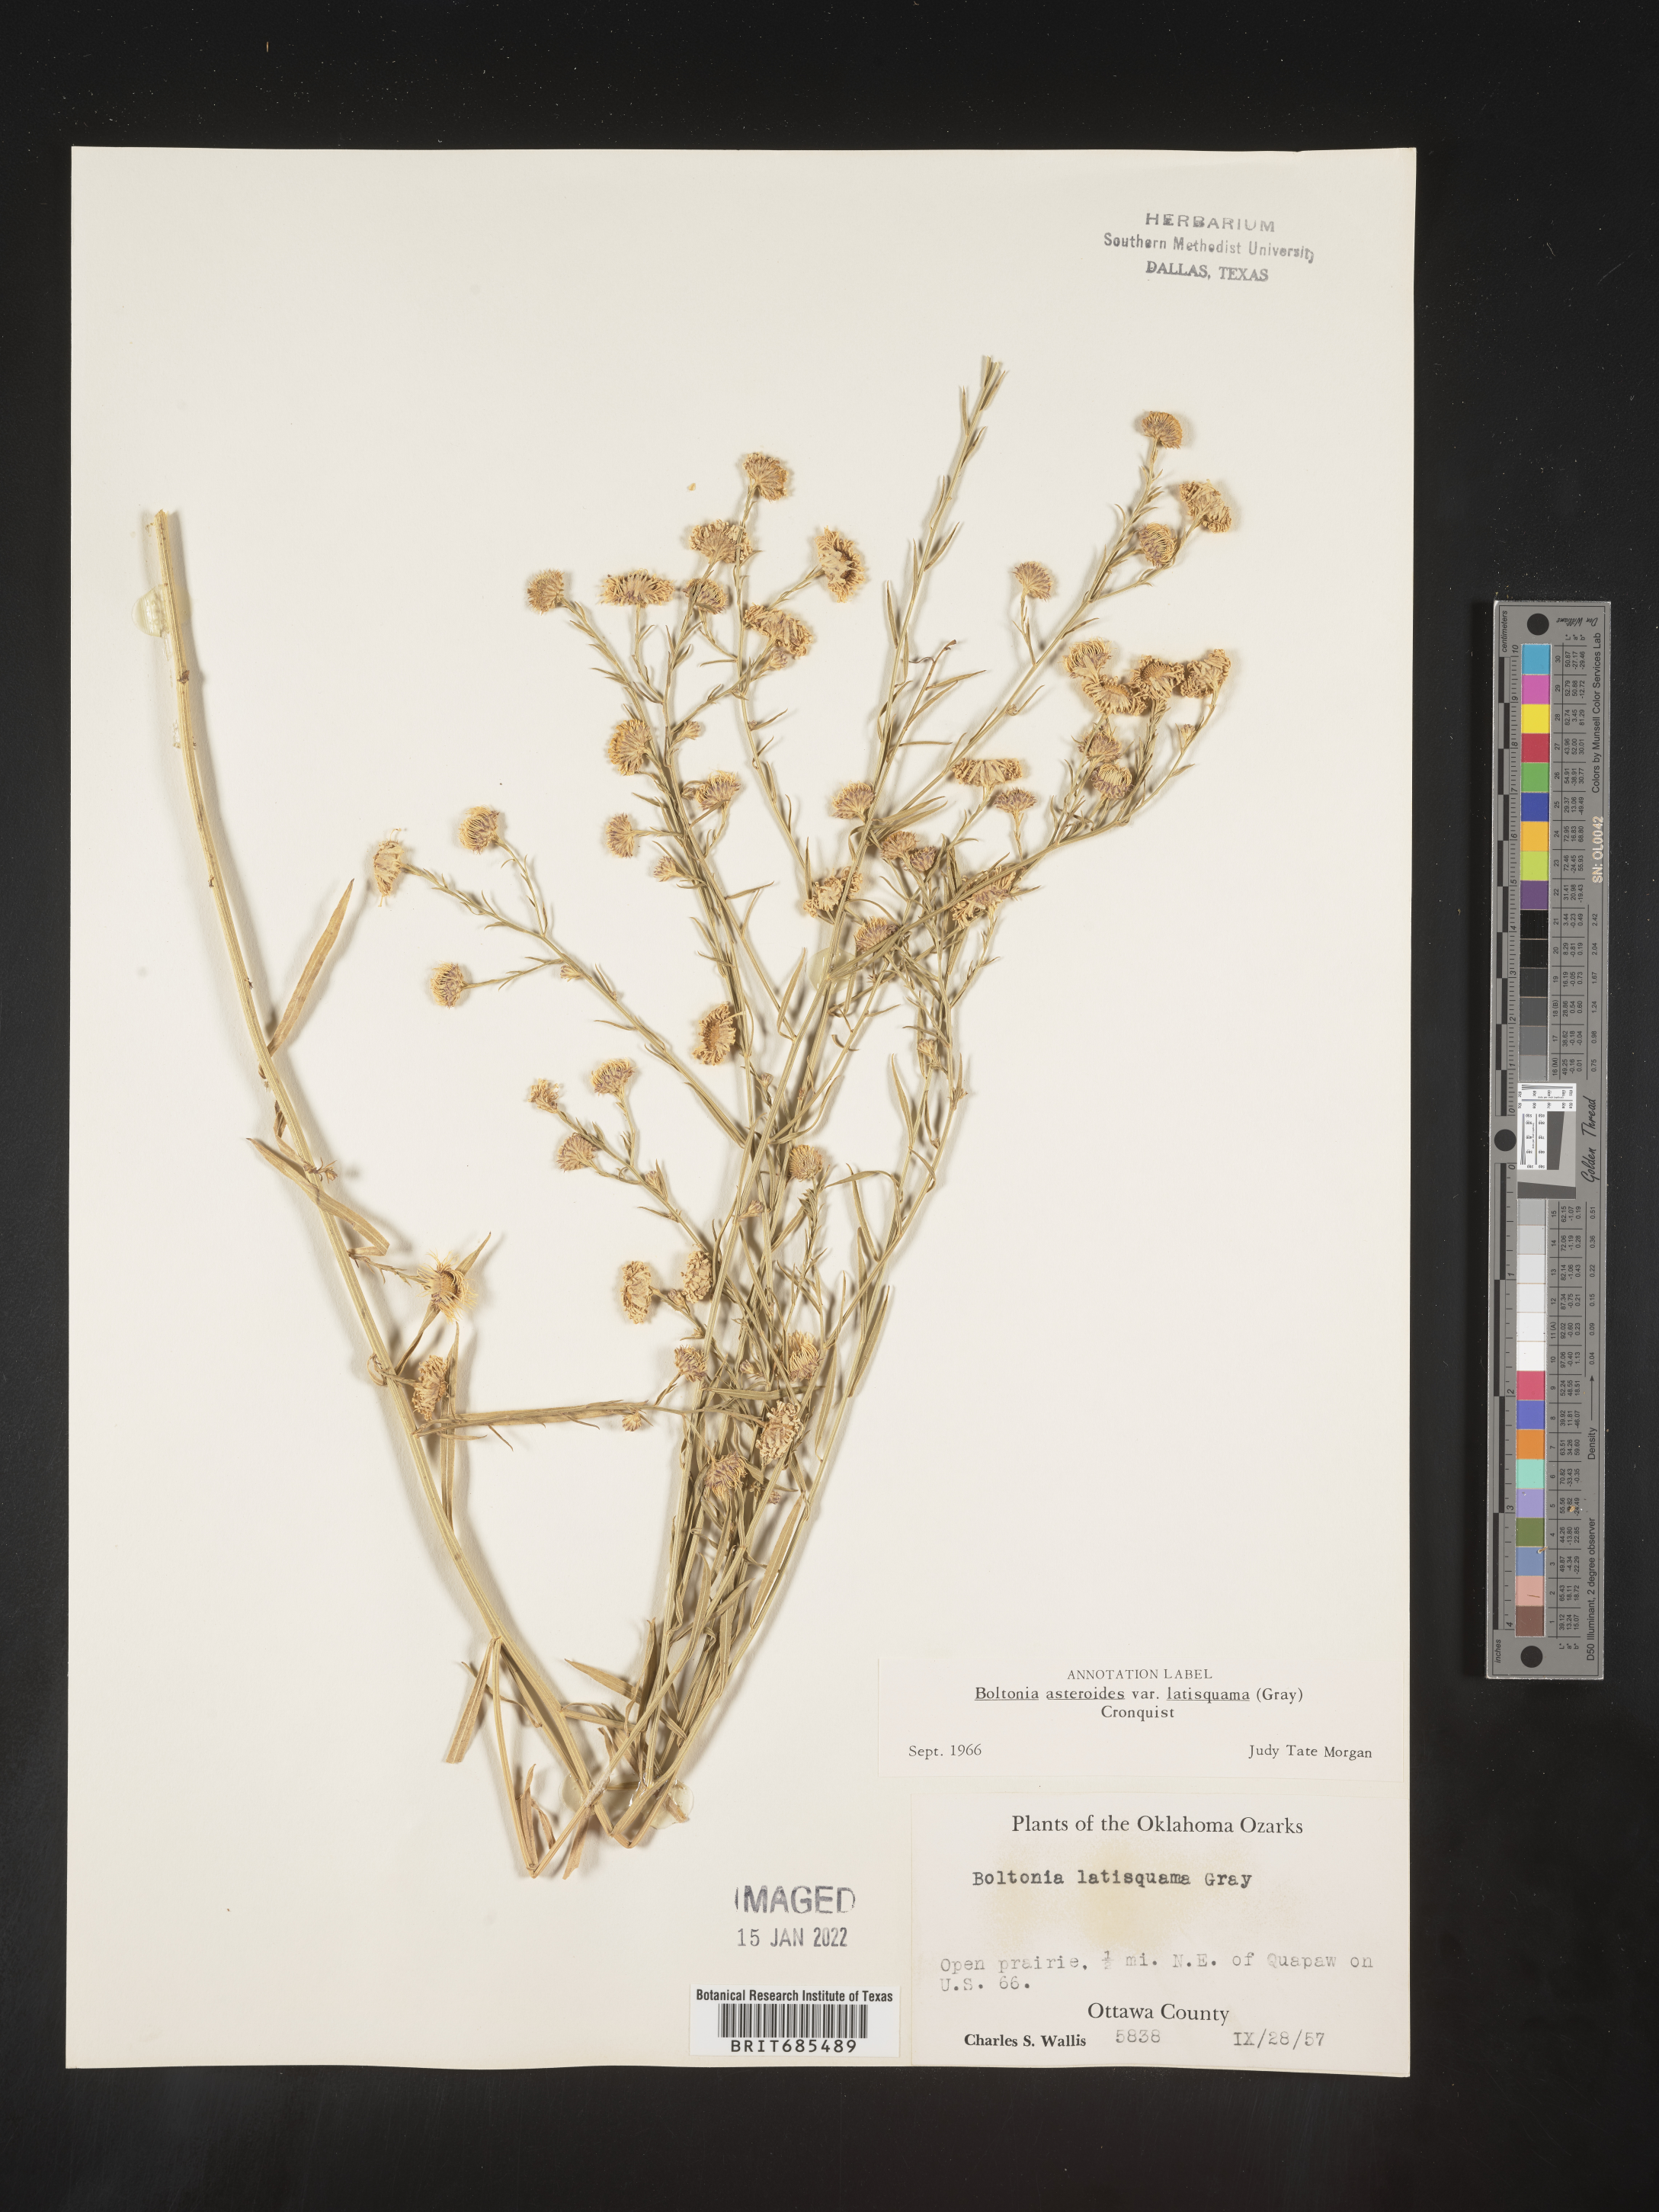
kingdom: Plantae
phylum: Tracheophyta
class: Magnoliopsida
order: Asterales
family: Asteraceae
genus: Boltonia
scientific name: Boltonia asteroides
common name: False chamomile
